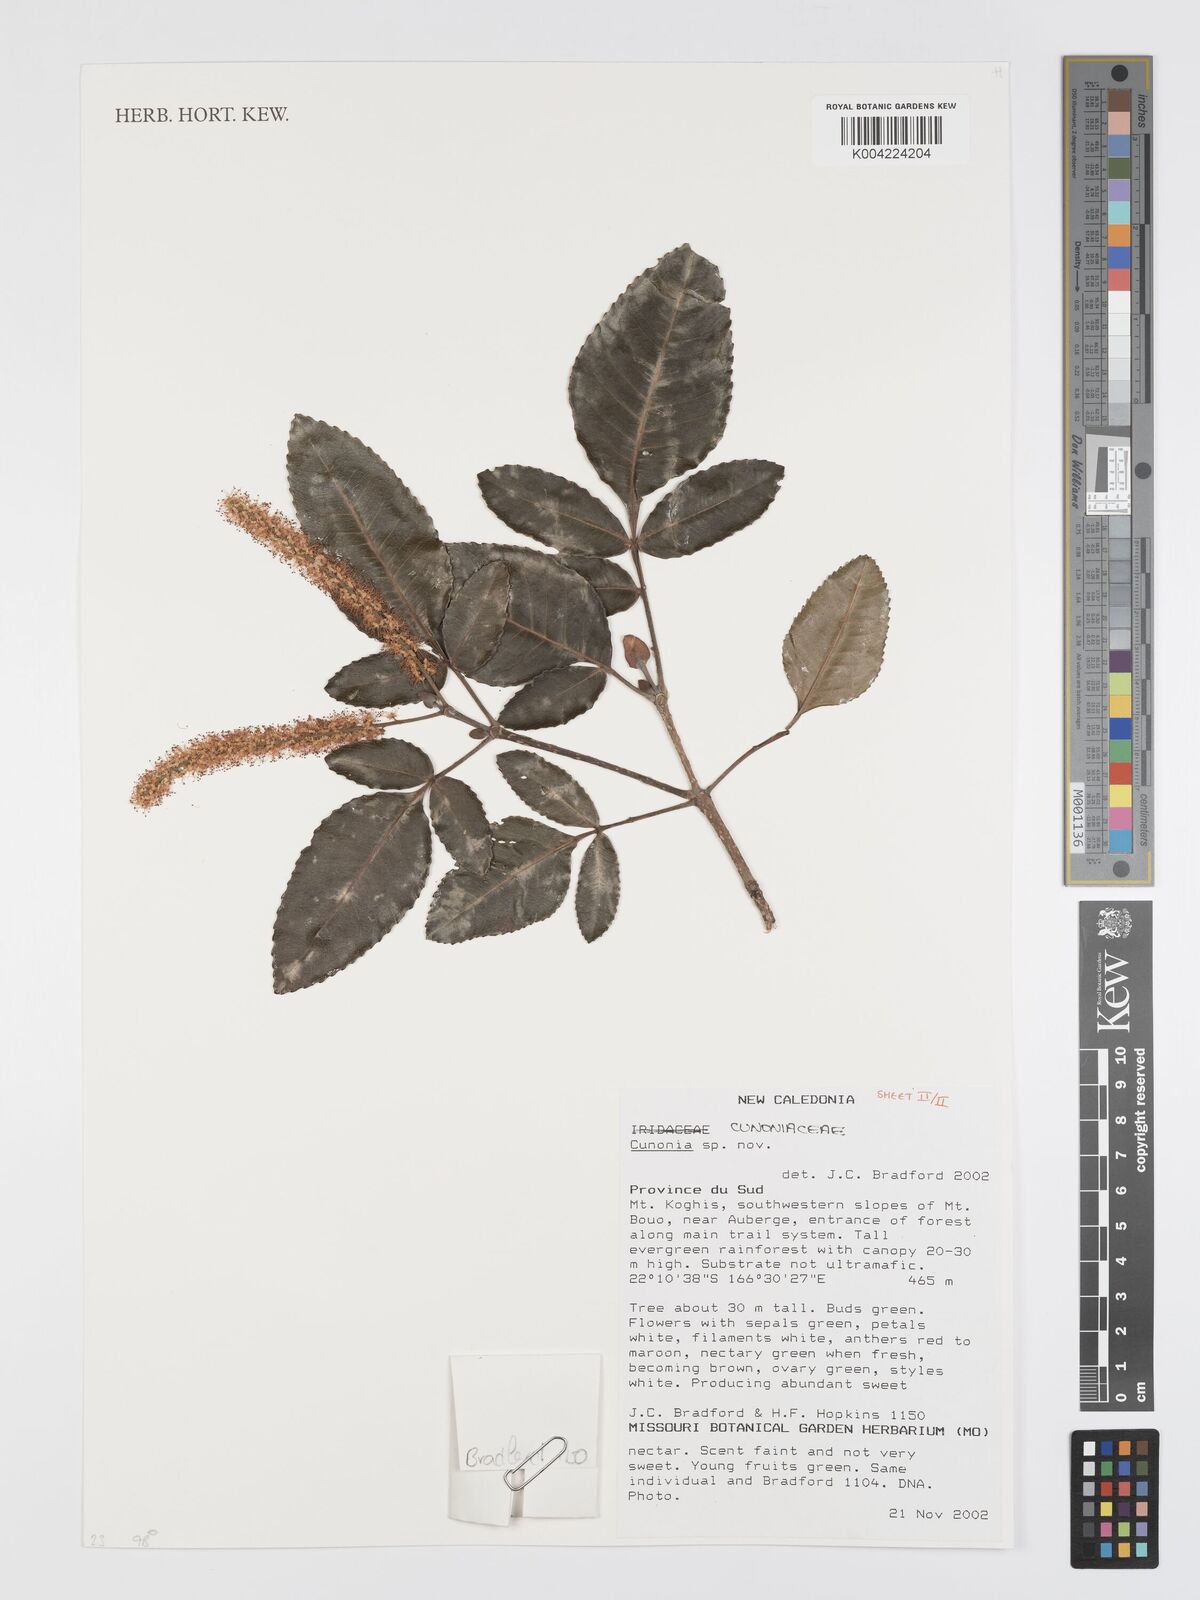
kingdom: Plantae
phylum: Tracheophyta
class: Magnoliopsida
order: Oxalidales
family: Cunoniaceae
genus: Cunonia
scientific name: Cunonia koghicola
